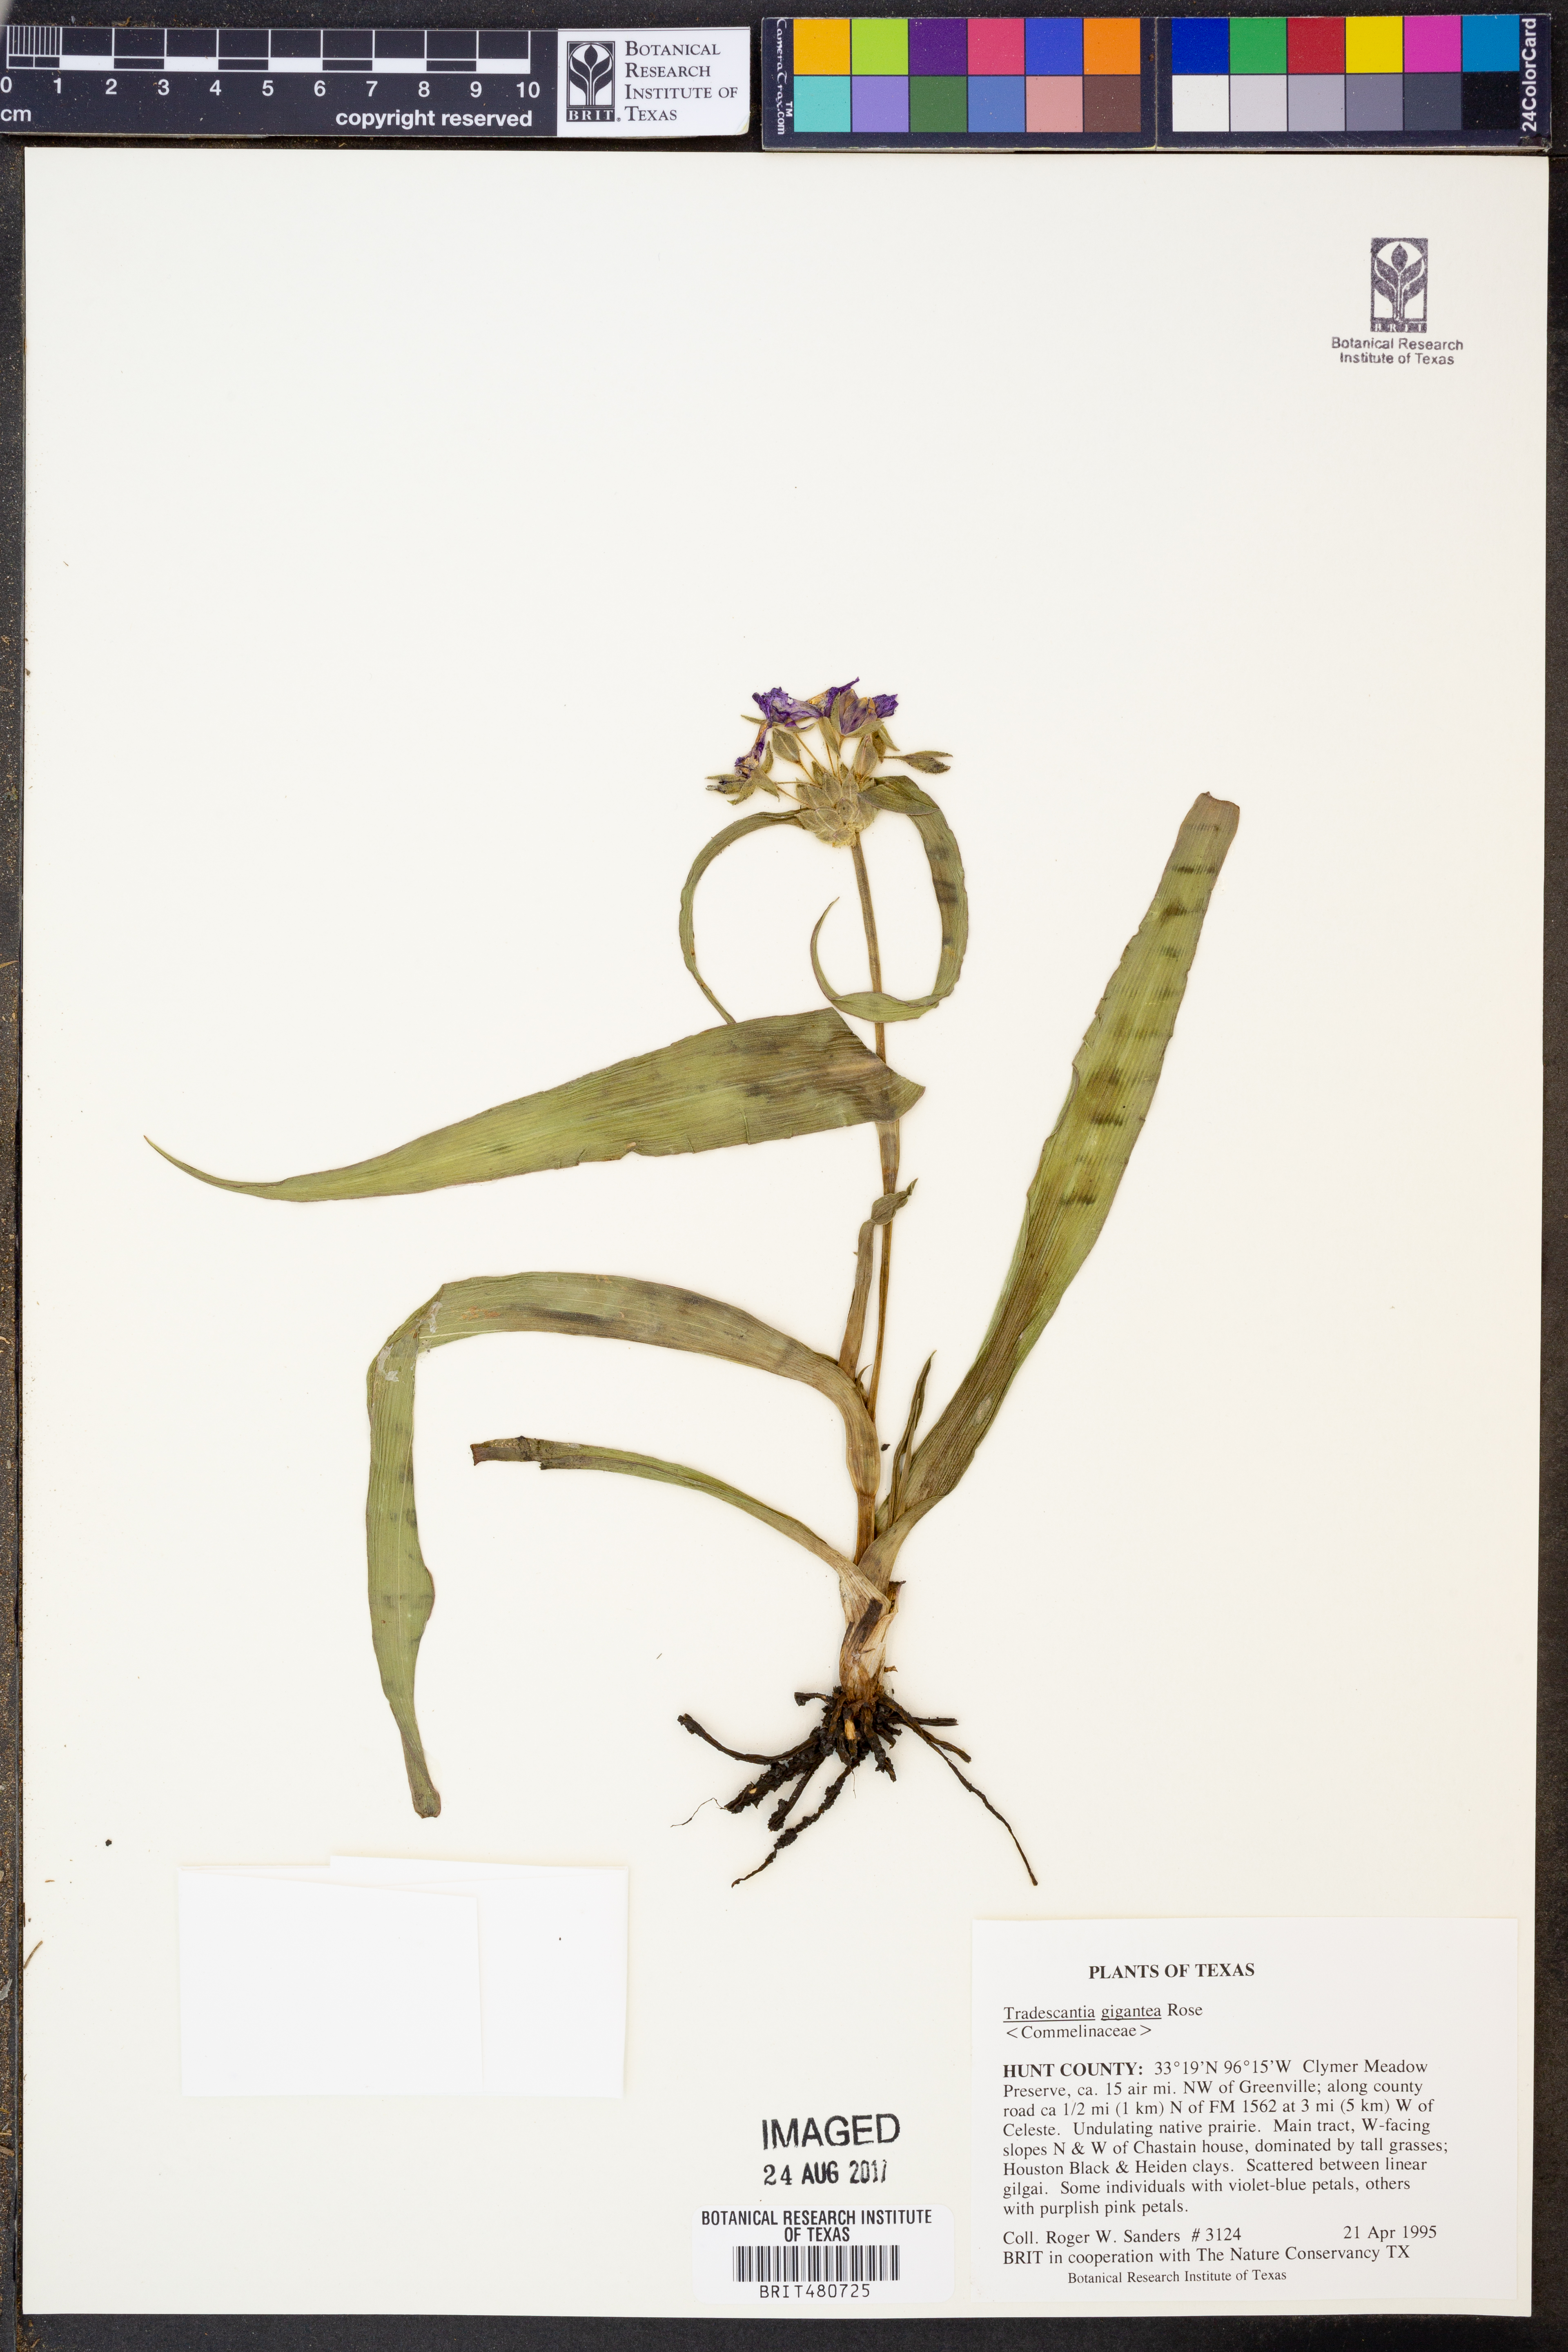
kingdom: Plantae
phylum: Tracheophyta
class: Liliopsida
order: Commelinales
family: Commelinaceae
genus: Tradescantia
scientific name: Tradescantia gigantea
